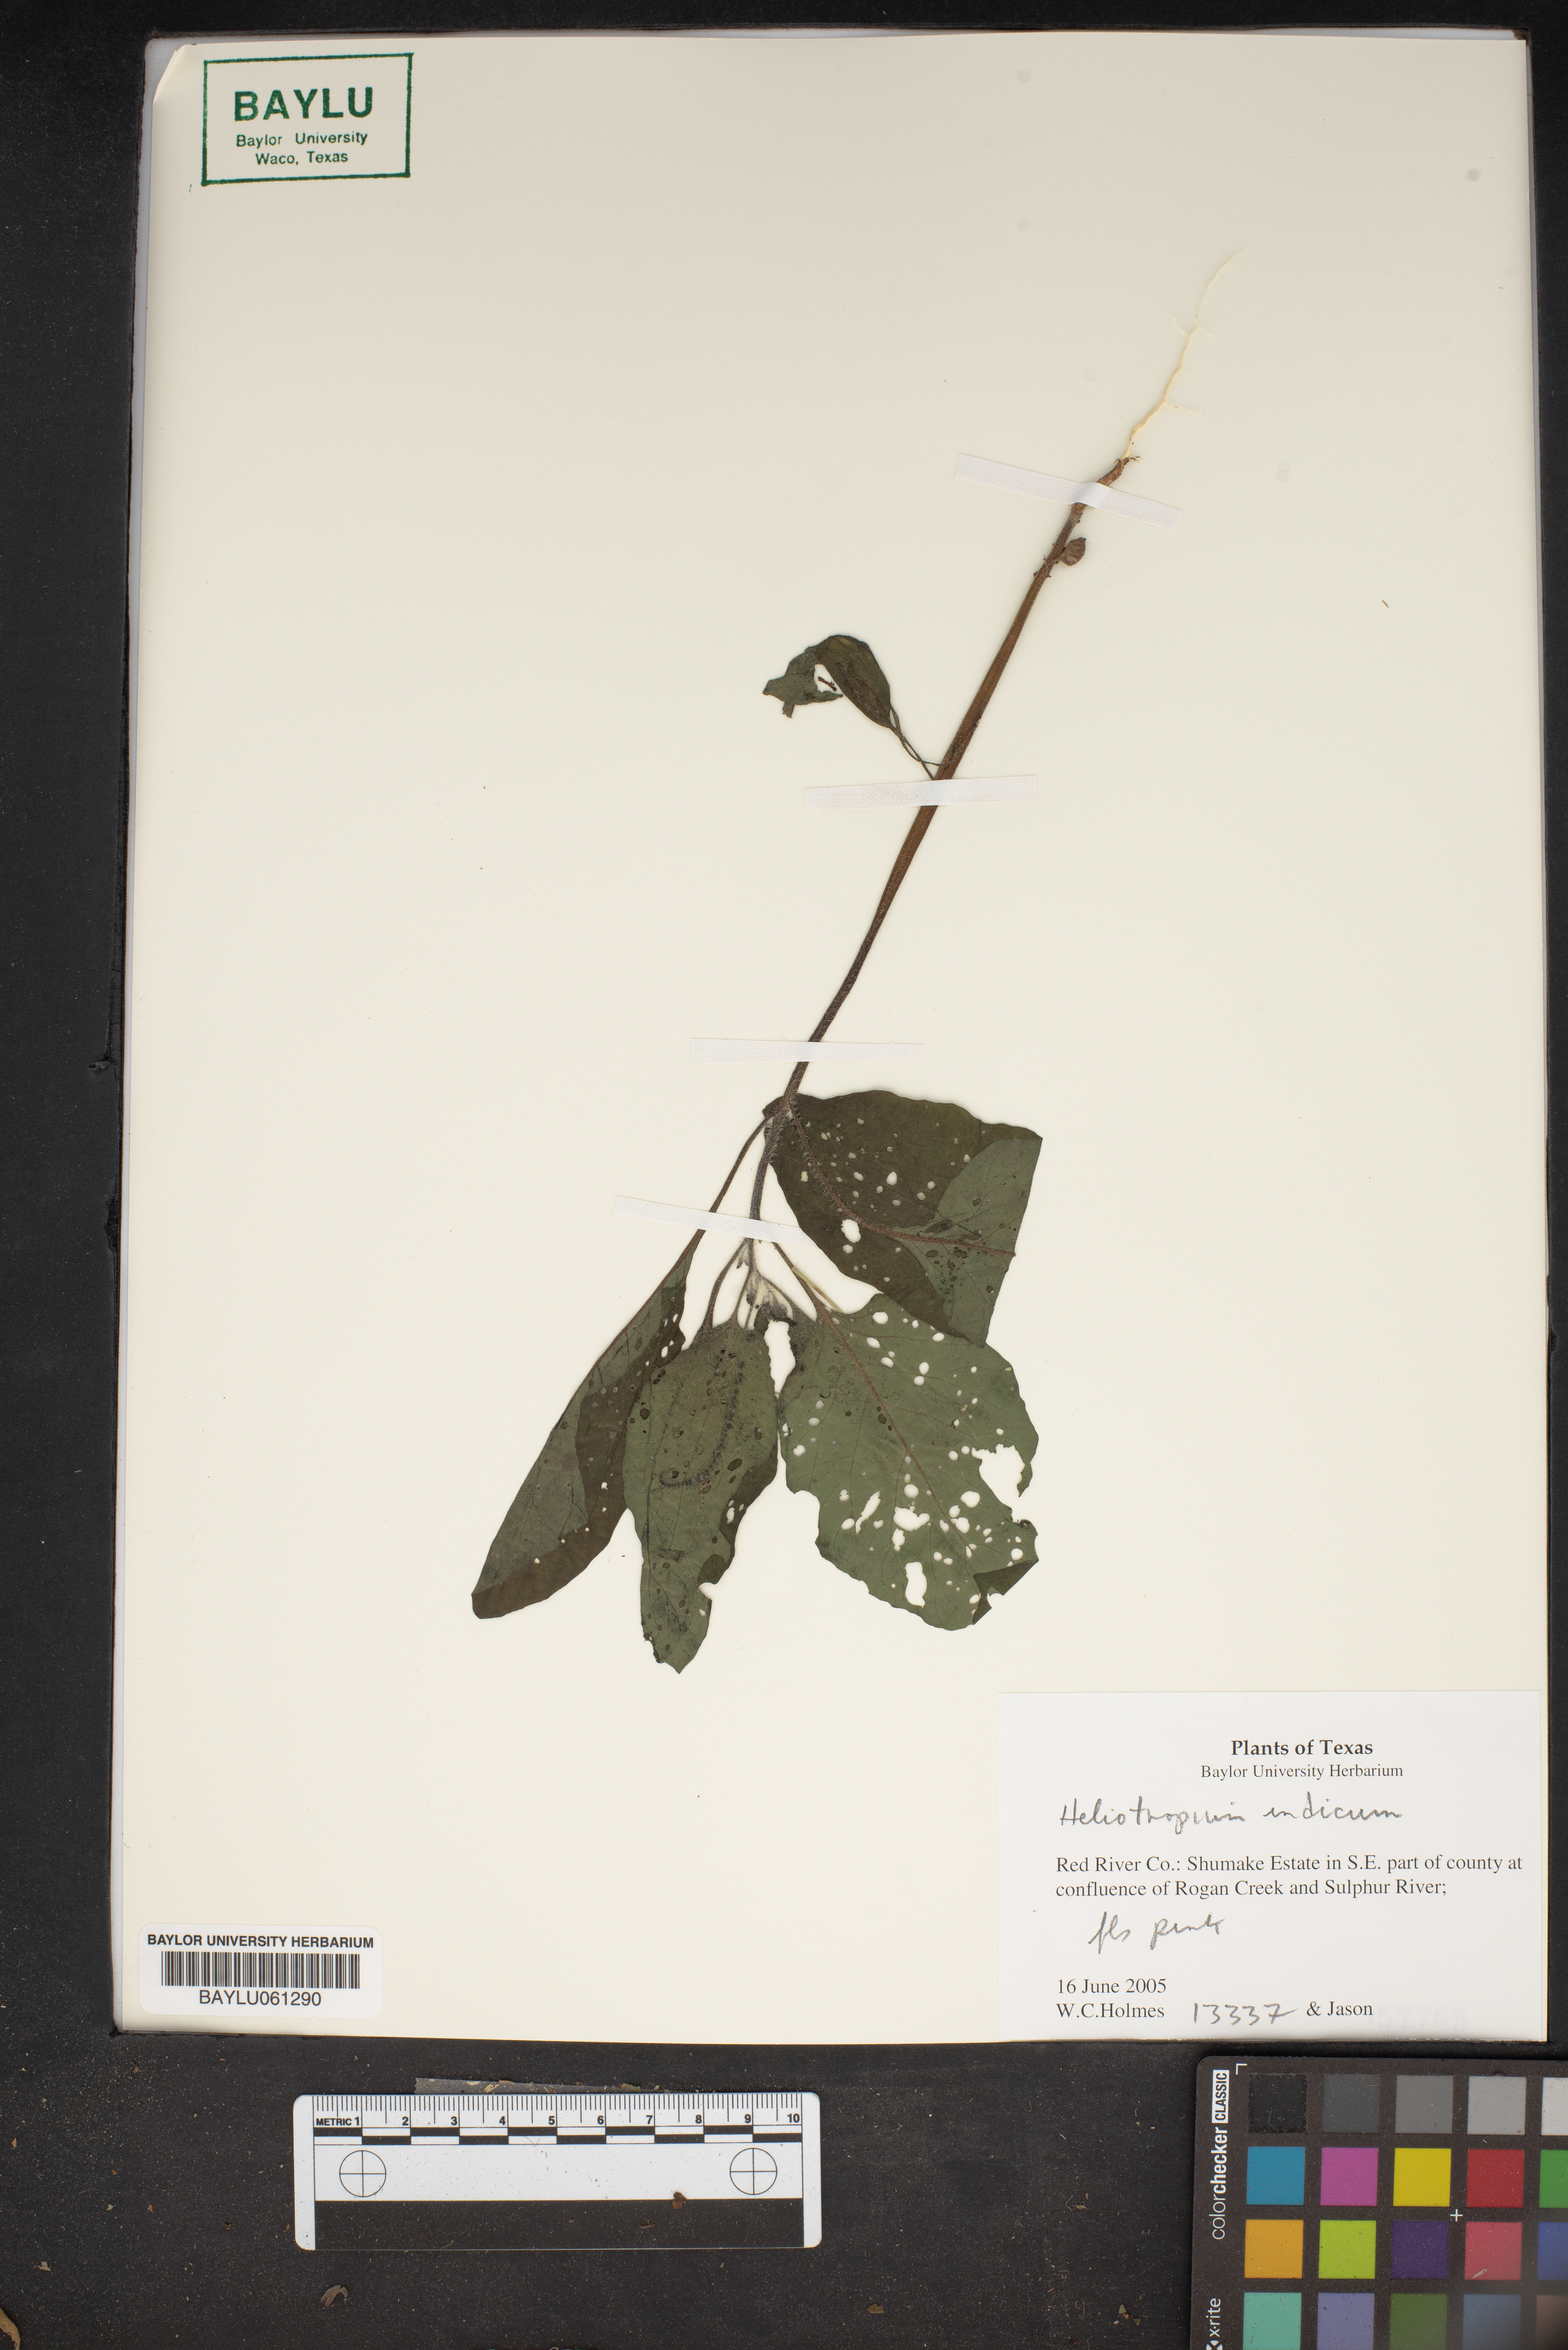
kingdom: Plantae
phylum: Tracheophyta
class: Magnoliopsida
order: Boraginales
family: Heliotropiaceae
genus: Heliotropium
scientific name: Heliotropium indicum
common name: Indian heliotrope
